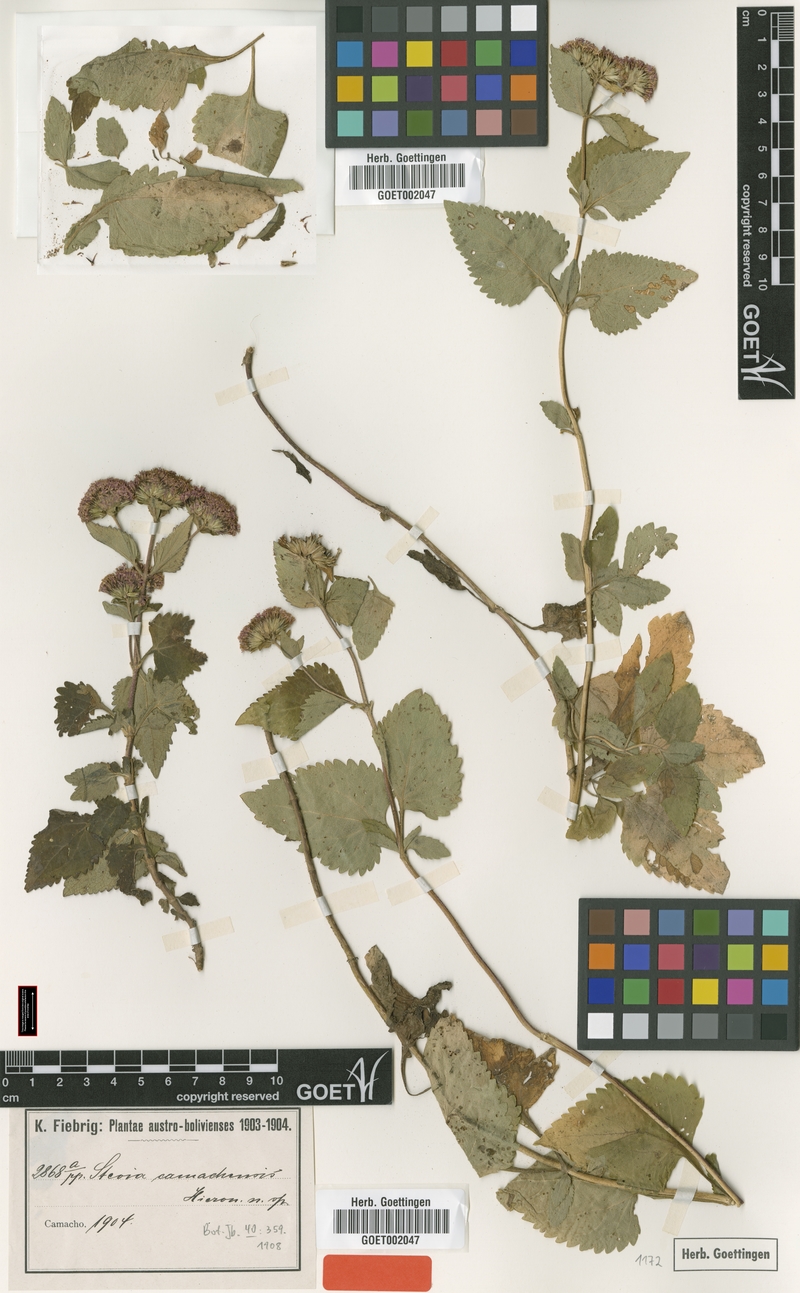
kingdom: Plantae
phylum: Tracheophyta
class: Magnoliopsida
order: Asterales
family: Asteraceae
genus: Stevia
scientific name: Stevia camachensis
